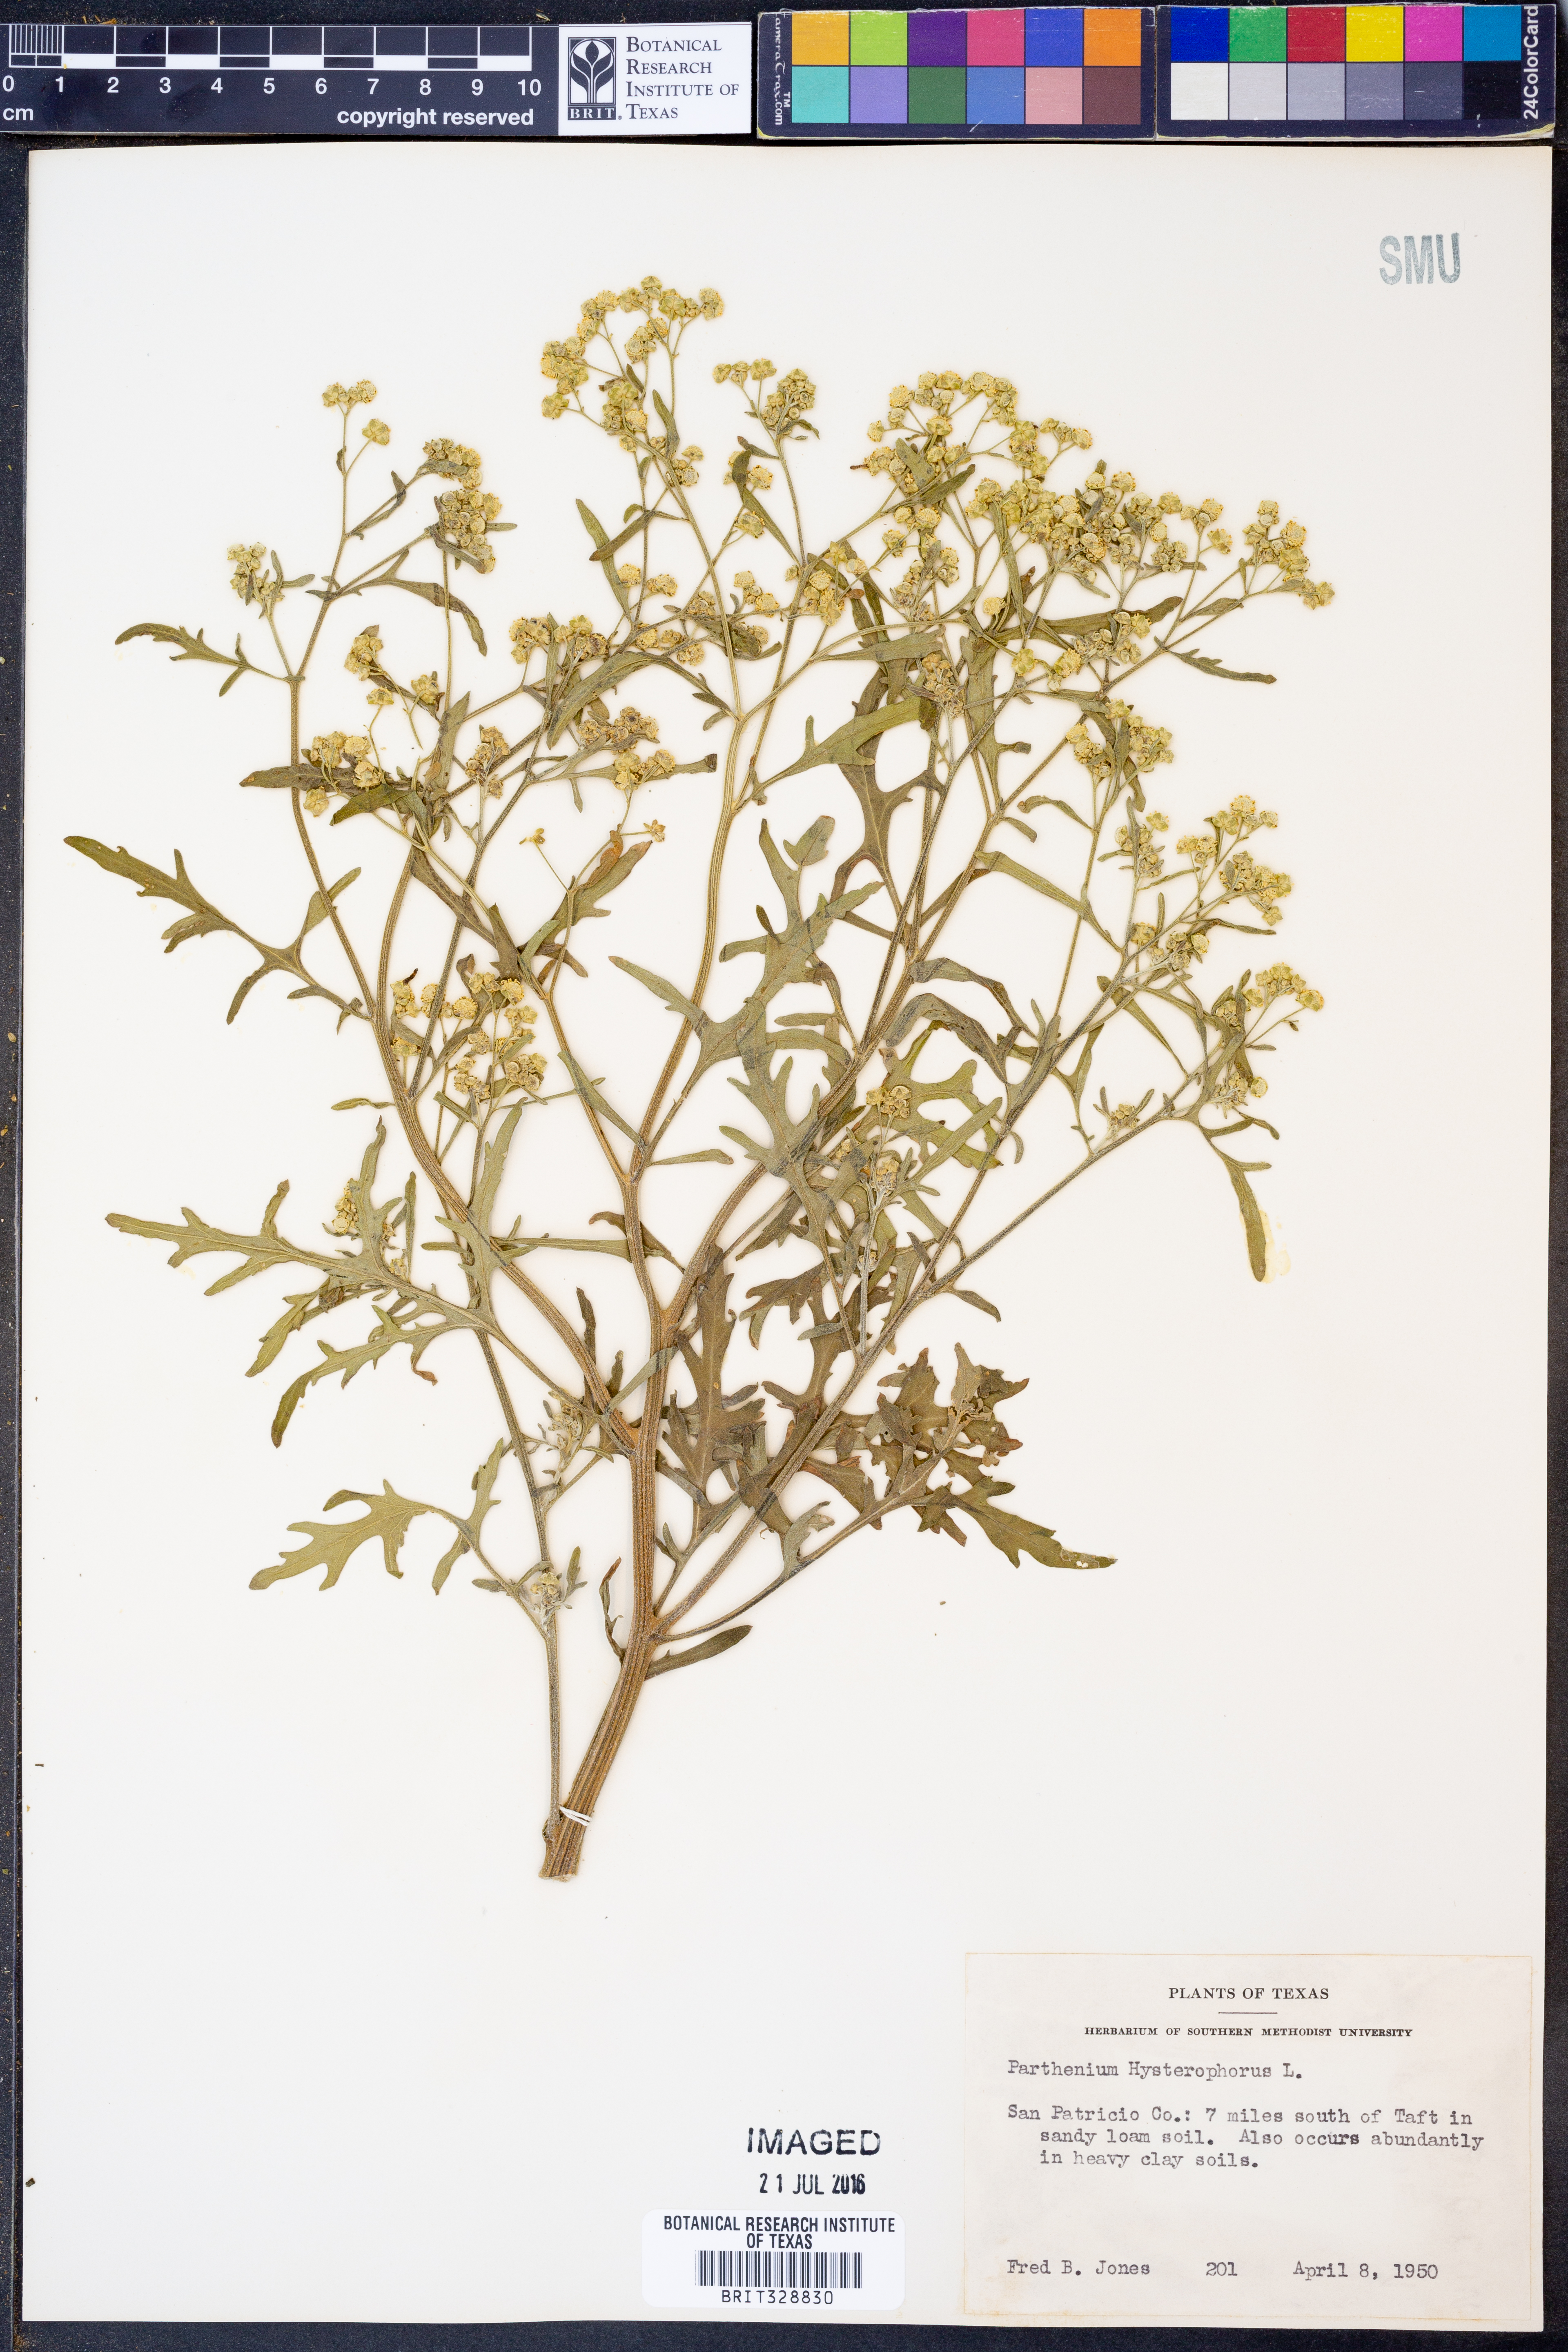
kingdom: Plantae
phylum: Tracheophyta
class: Magnoliopsida
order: Asterales
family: Asteraceae
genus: Parthenium
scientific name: Parthenium hysterophorus
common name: Santa maria feverfew
